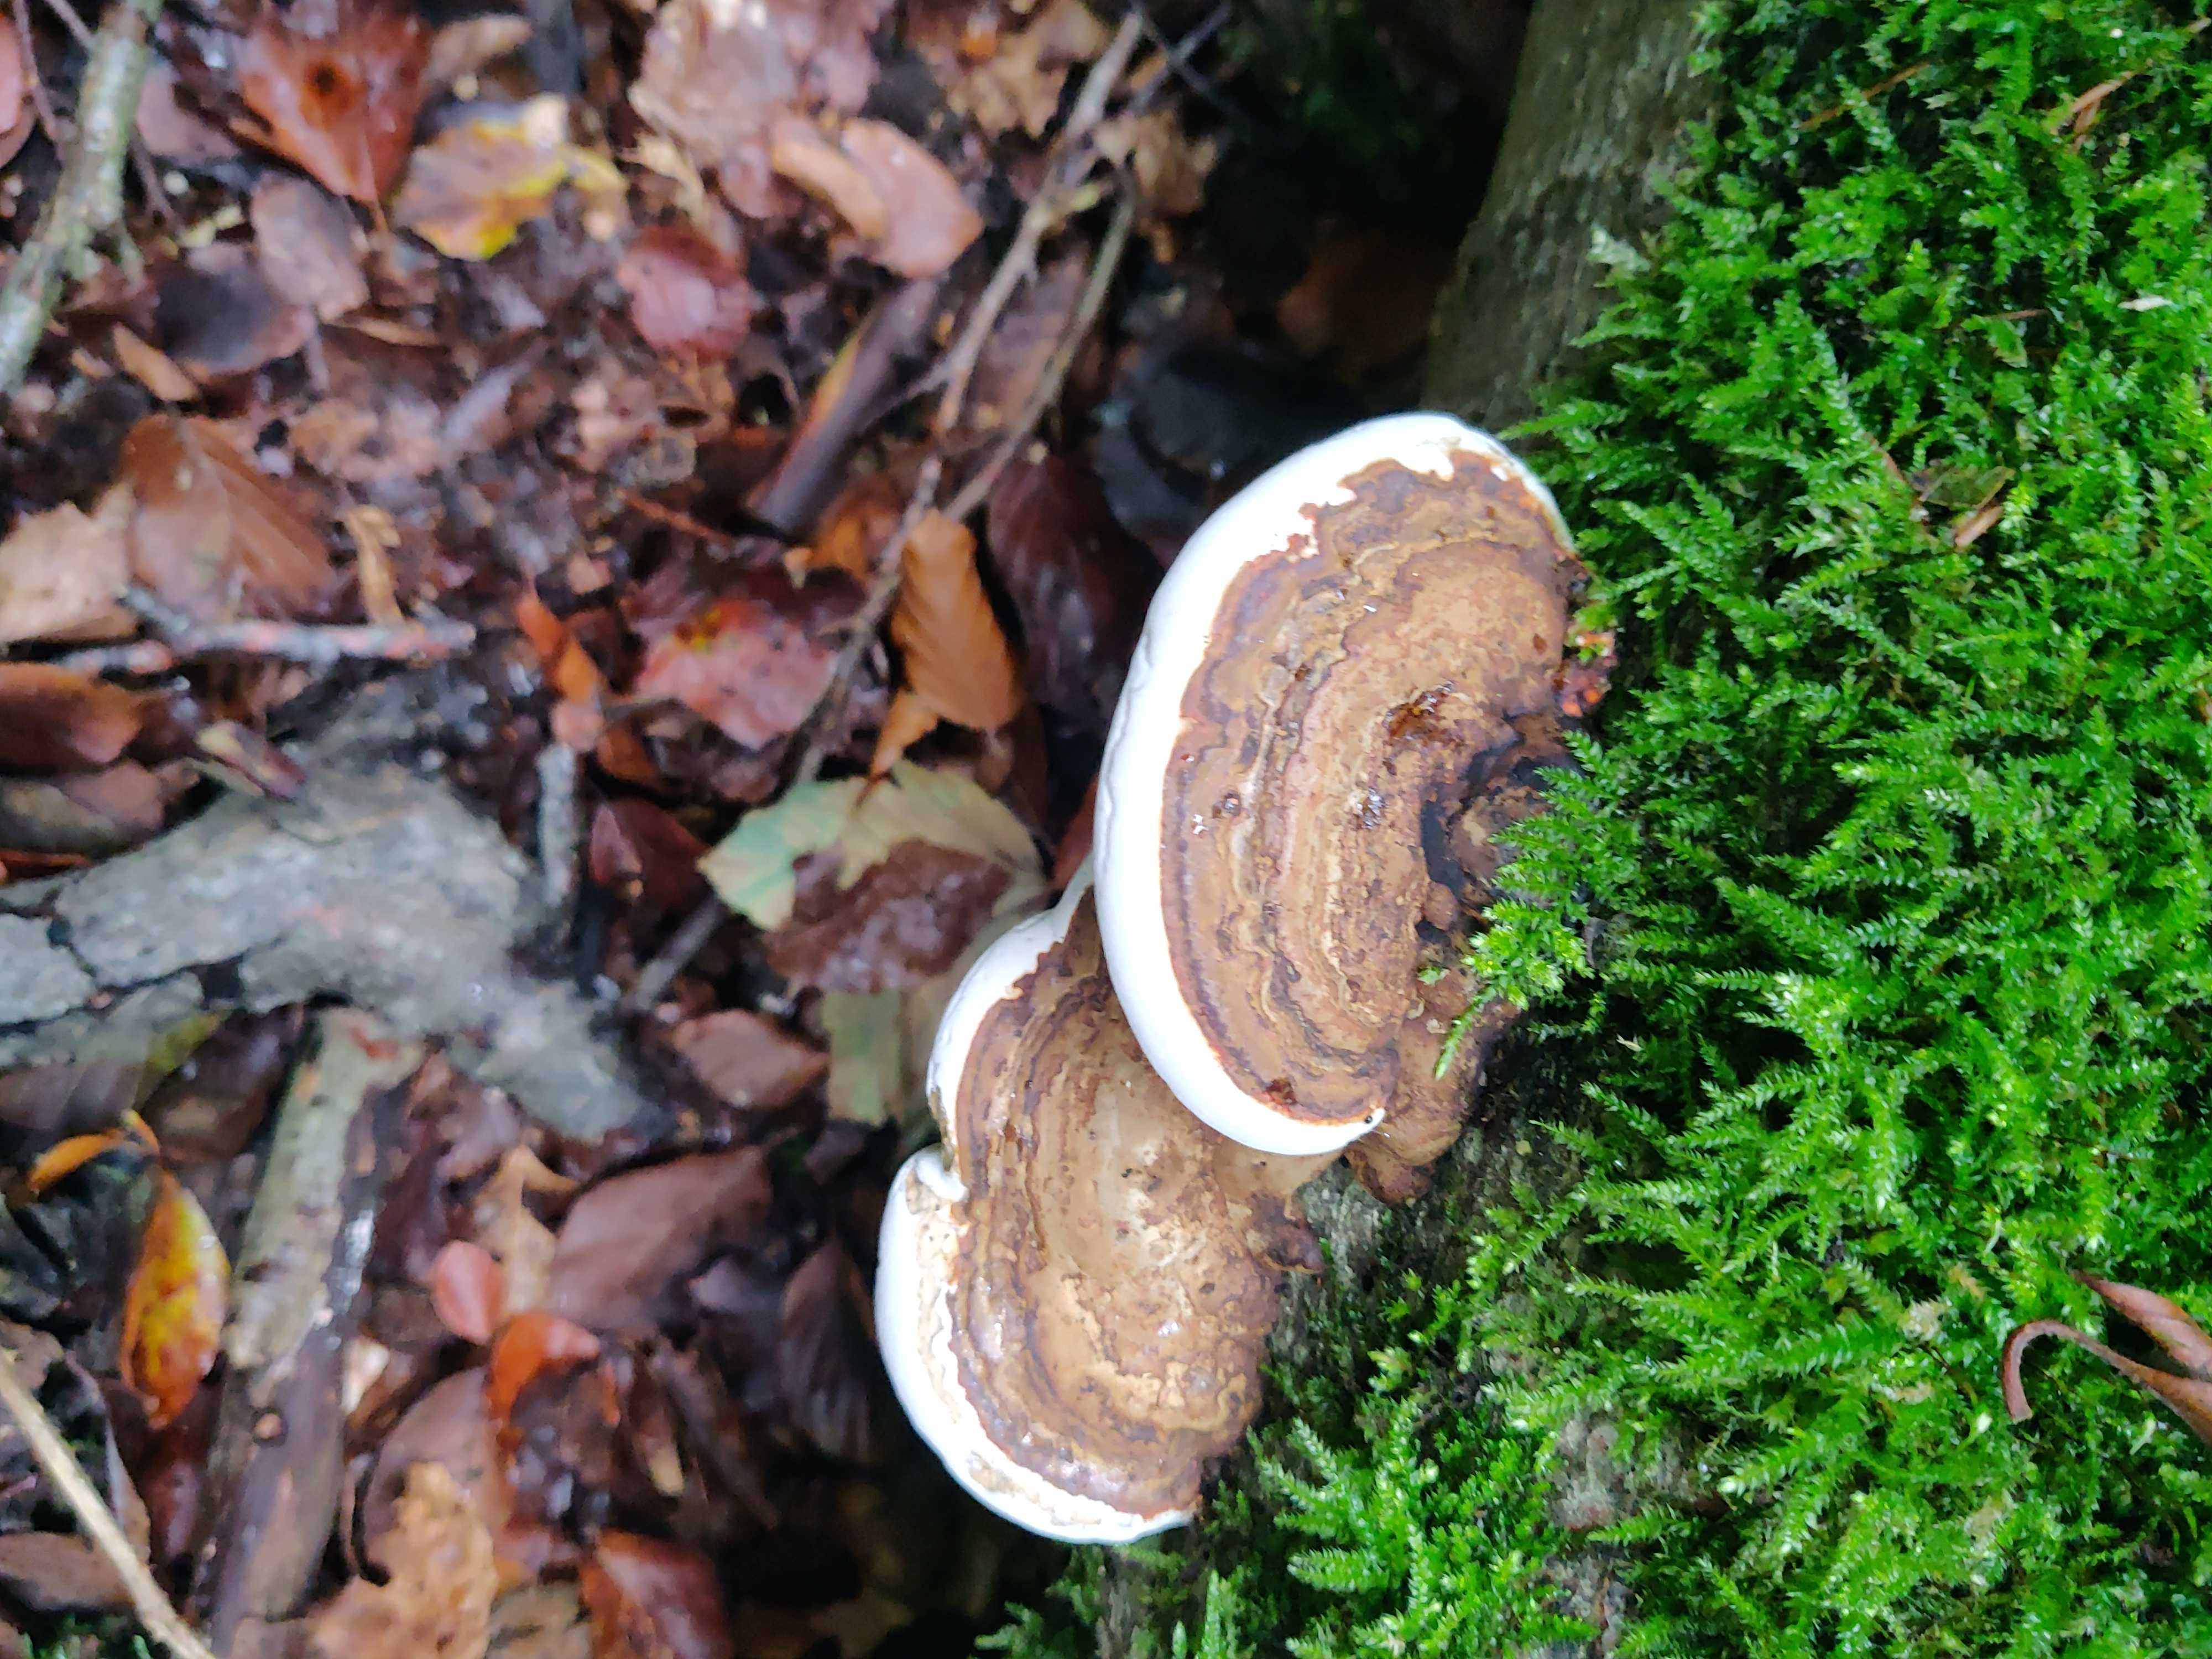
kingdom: Fungi
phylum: Basidiomycota
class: Agaricomycetes
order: Polyporales
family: Polyporaceae
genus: Ganoderma
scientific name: Ganoderma applanatum
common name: flad lakporesvamp
